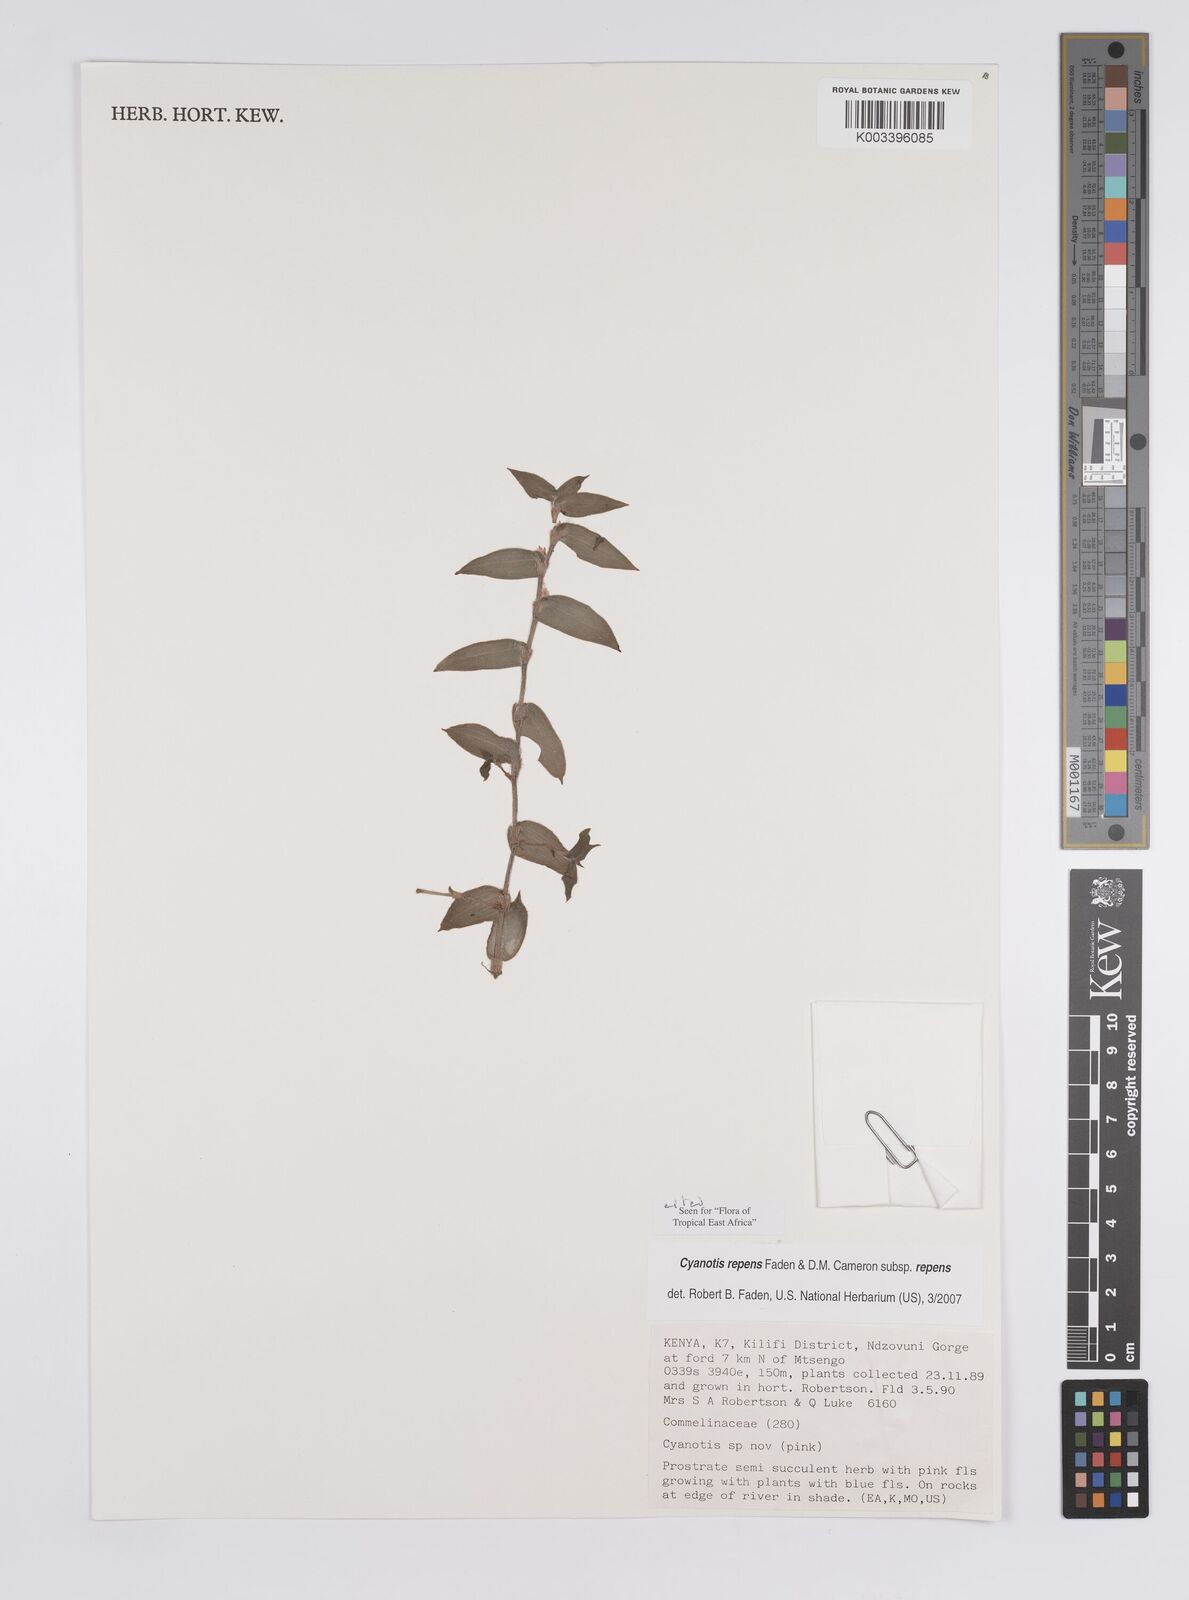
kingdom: Plantae
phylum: Tracheophyta
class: Liliopsida
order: Commelinales
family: Commelinaceae
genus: Cyanotis
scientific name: Cyanotis repens
